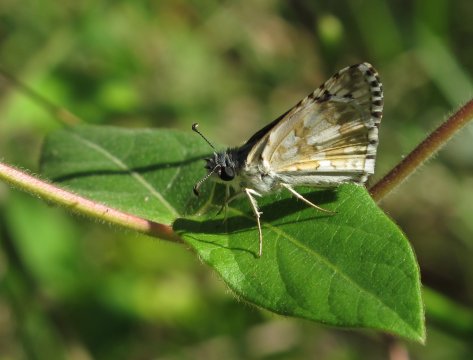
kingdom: Animalia
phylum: Arthropoda
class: Insecta
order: Lepidoptera
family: Hesperiidae
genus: Pyrgus
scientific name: Pyrgus communis
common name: White Checkered-Skipper
